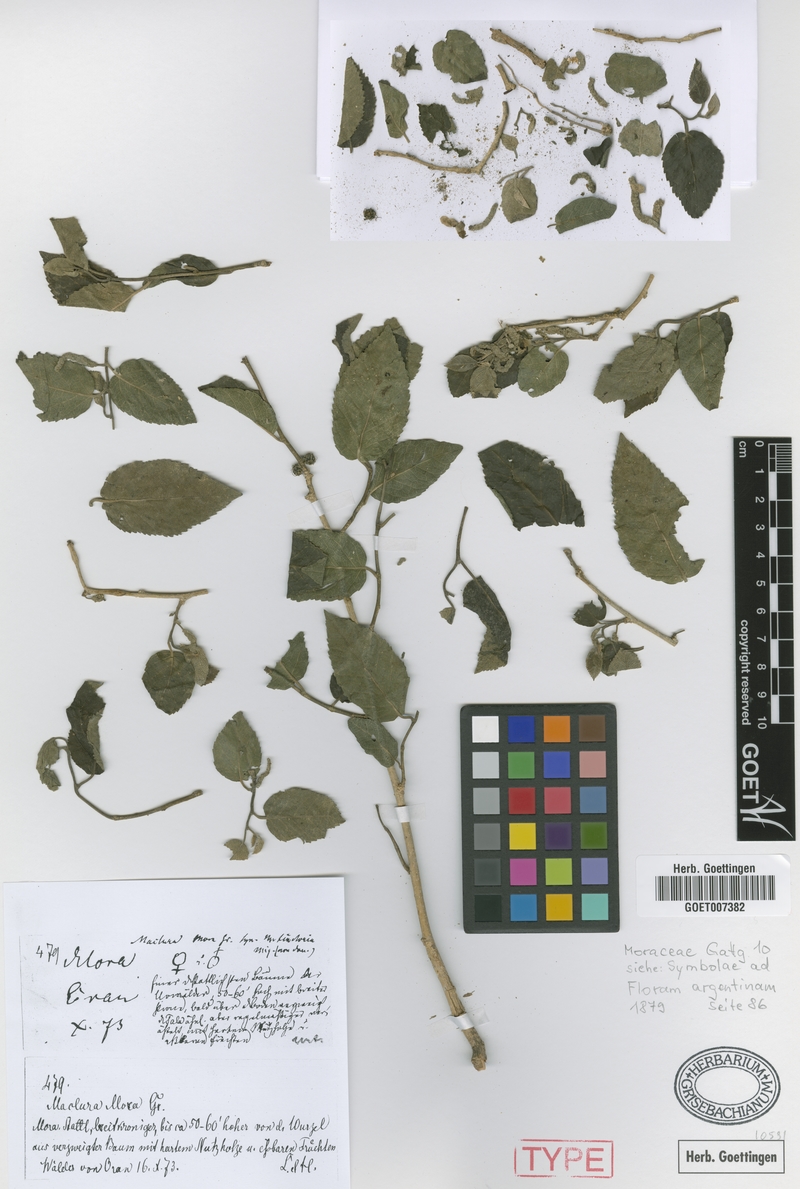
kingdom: Plantae
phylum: Tracheophyta
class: Magnoliopsida
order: Rosales
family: Moraceae
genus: Maclura
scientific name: Maclura tinctoria
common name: Old fustic
